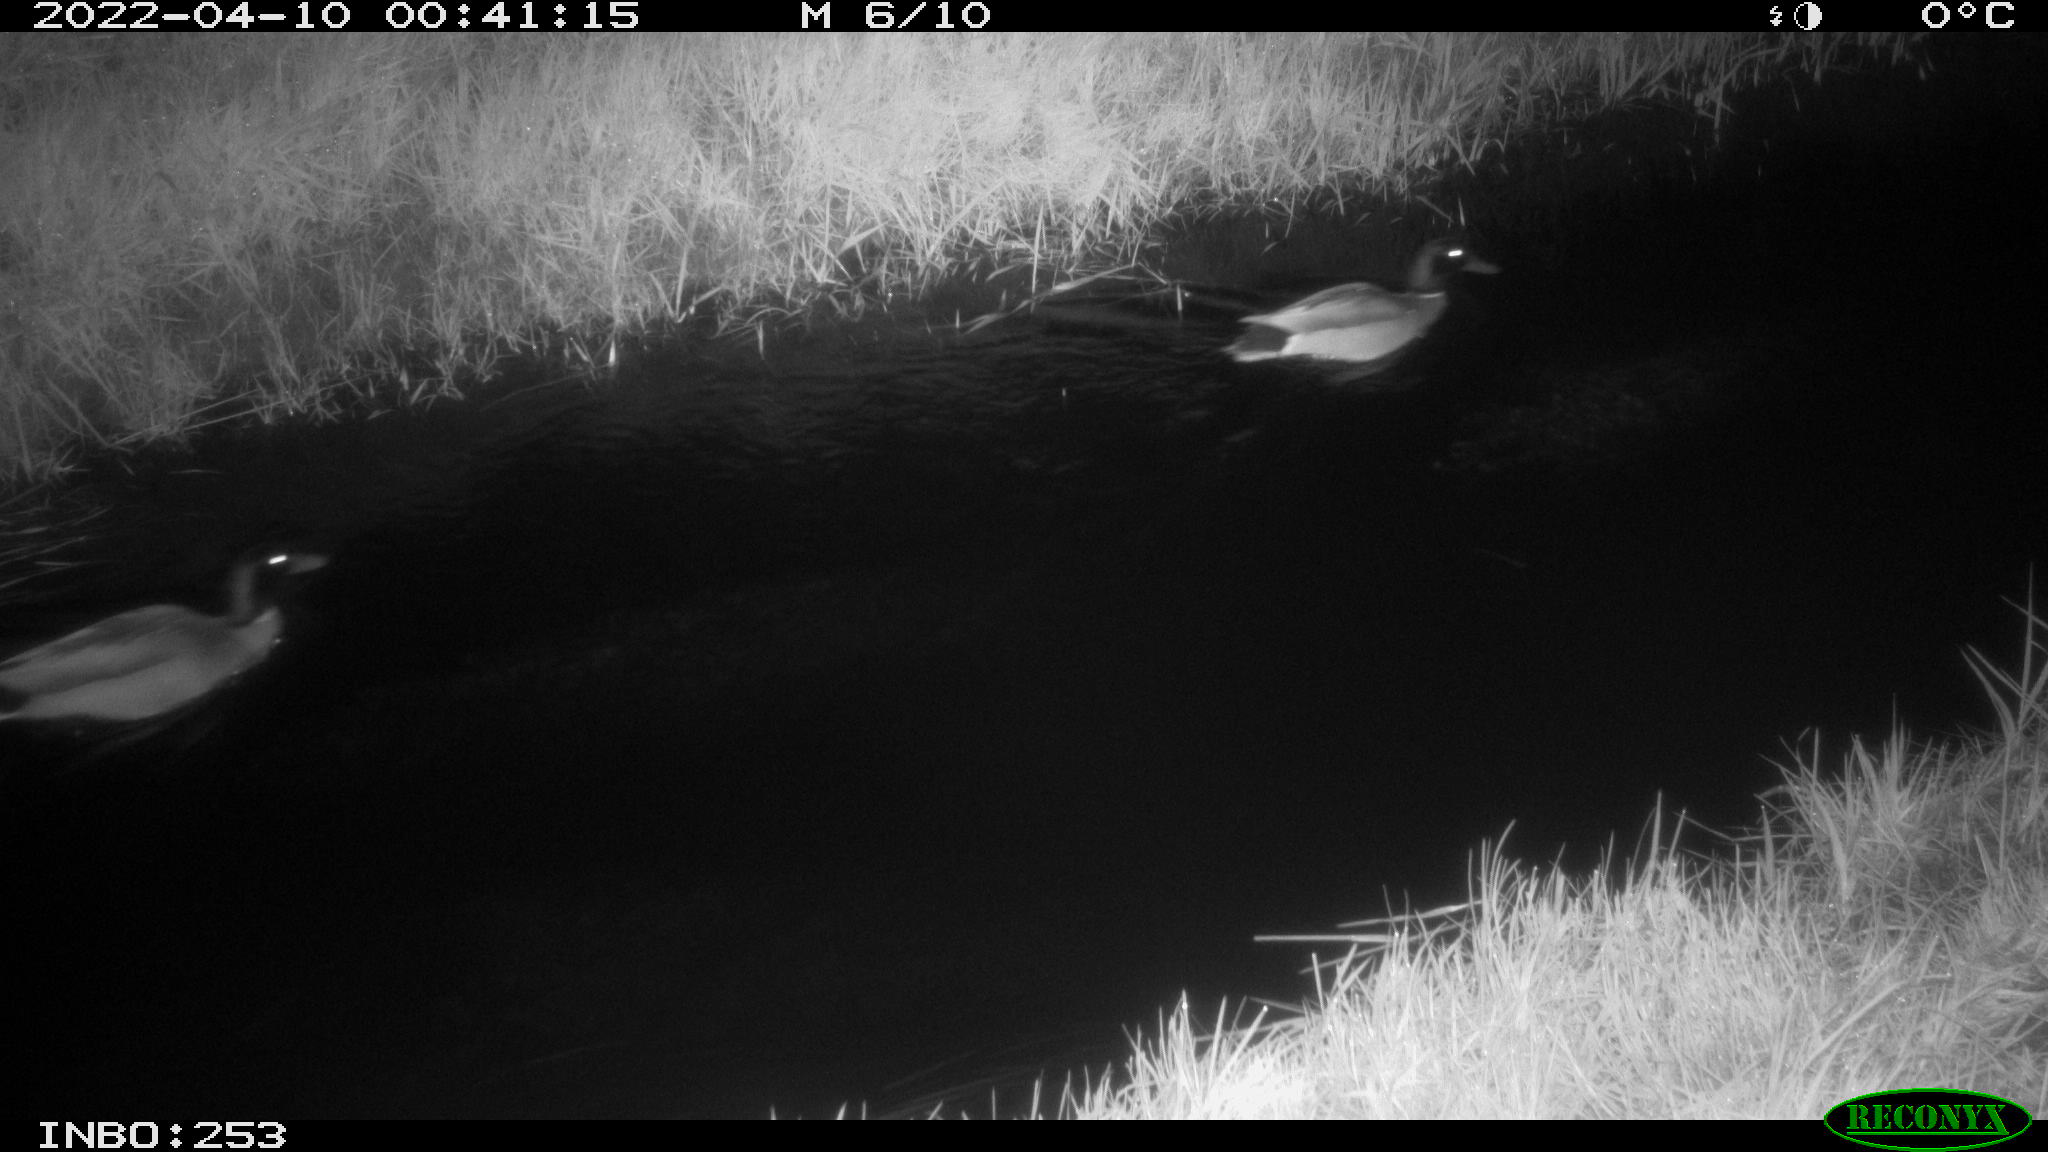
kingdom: Animalia
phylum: Chordata
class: Aves
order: Anseriformes
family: Anatidae
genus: Anas
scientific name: Anas platyrhynchos
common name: Mallard
